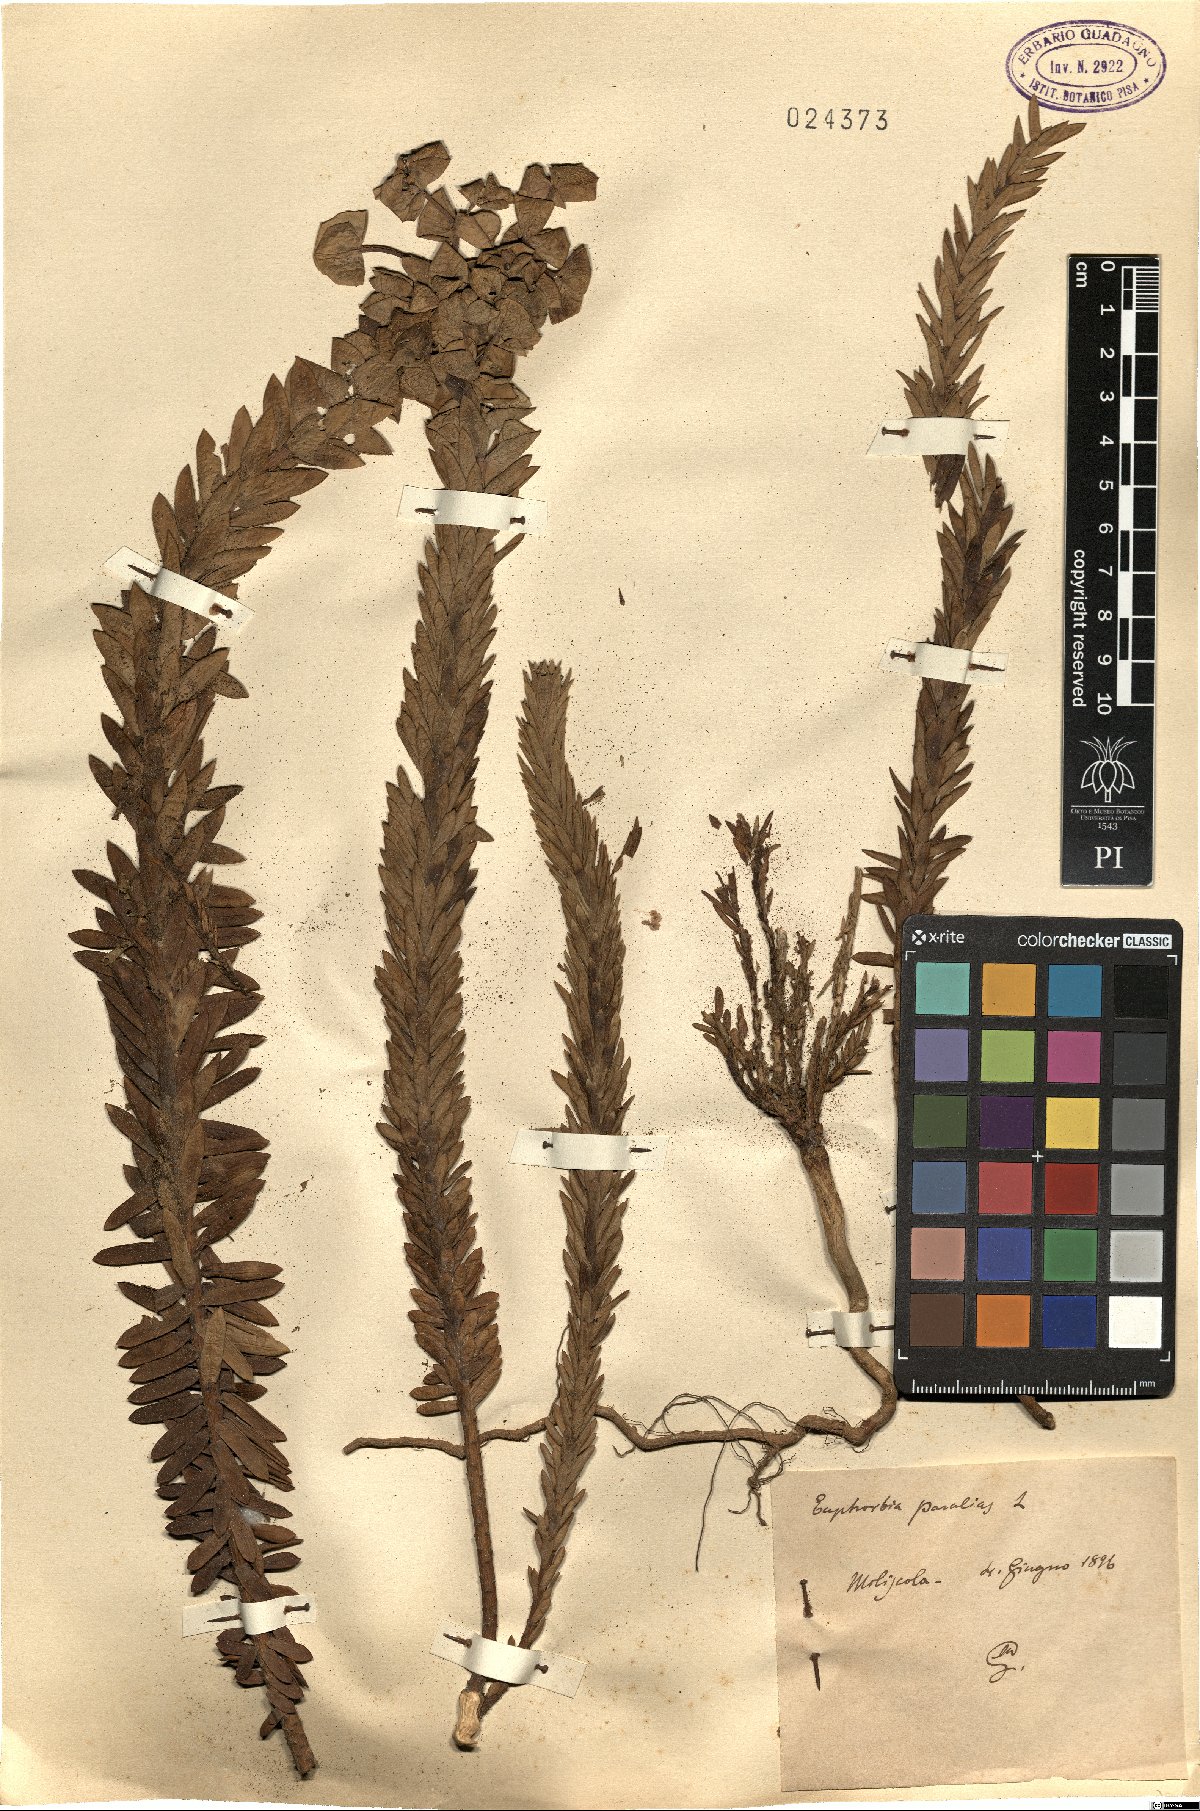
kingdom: Plantae
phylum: Tracheophyta
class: Magnoliopsida
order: Malpighiales
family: Euphorbiaceae
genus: Euphorbia
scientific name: Euphorbia paralias
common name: Sea spurge
